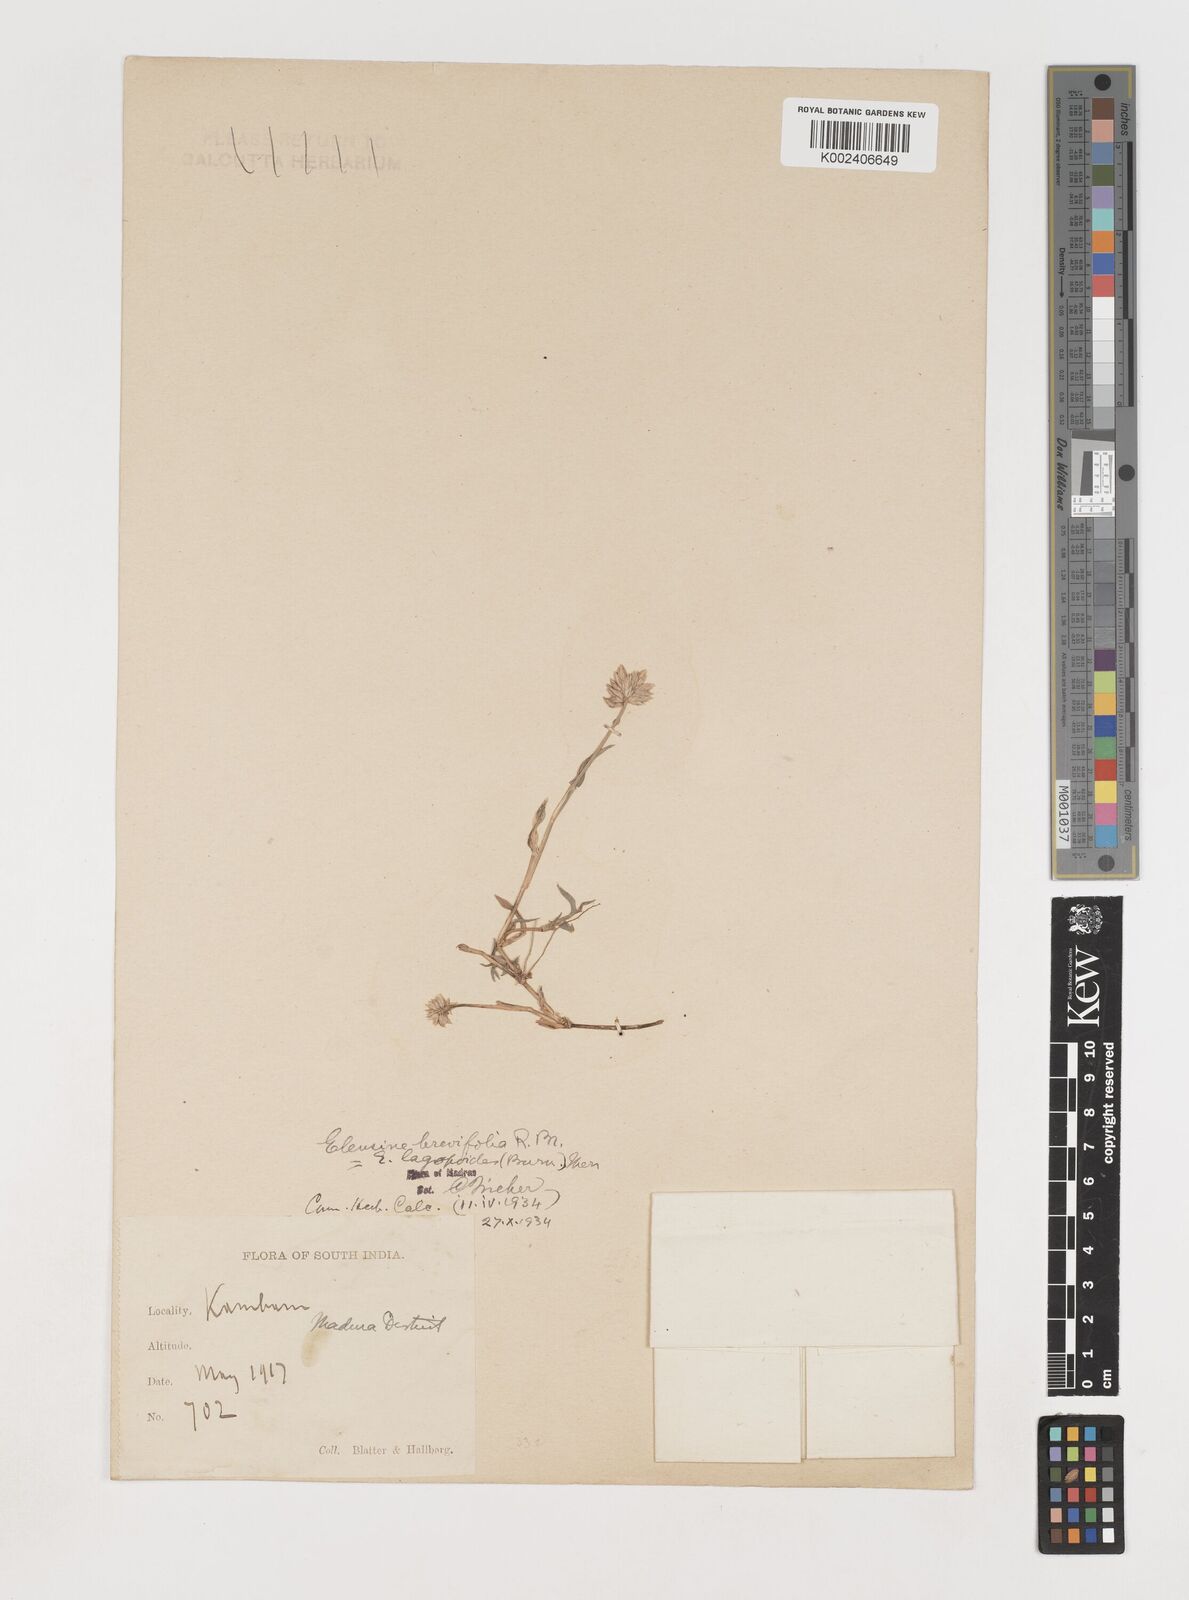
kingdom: Plantae
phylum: Tracheophyta
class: Liliopsida
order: Poales
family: Poaceae
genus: Coelachyrum
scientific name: Coelachyrum lagopoides
